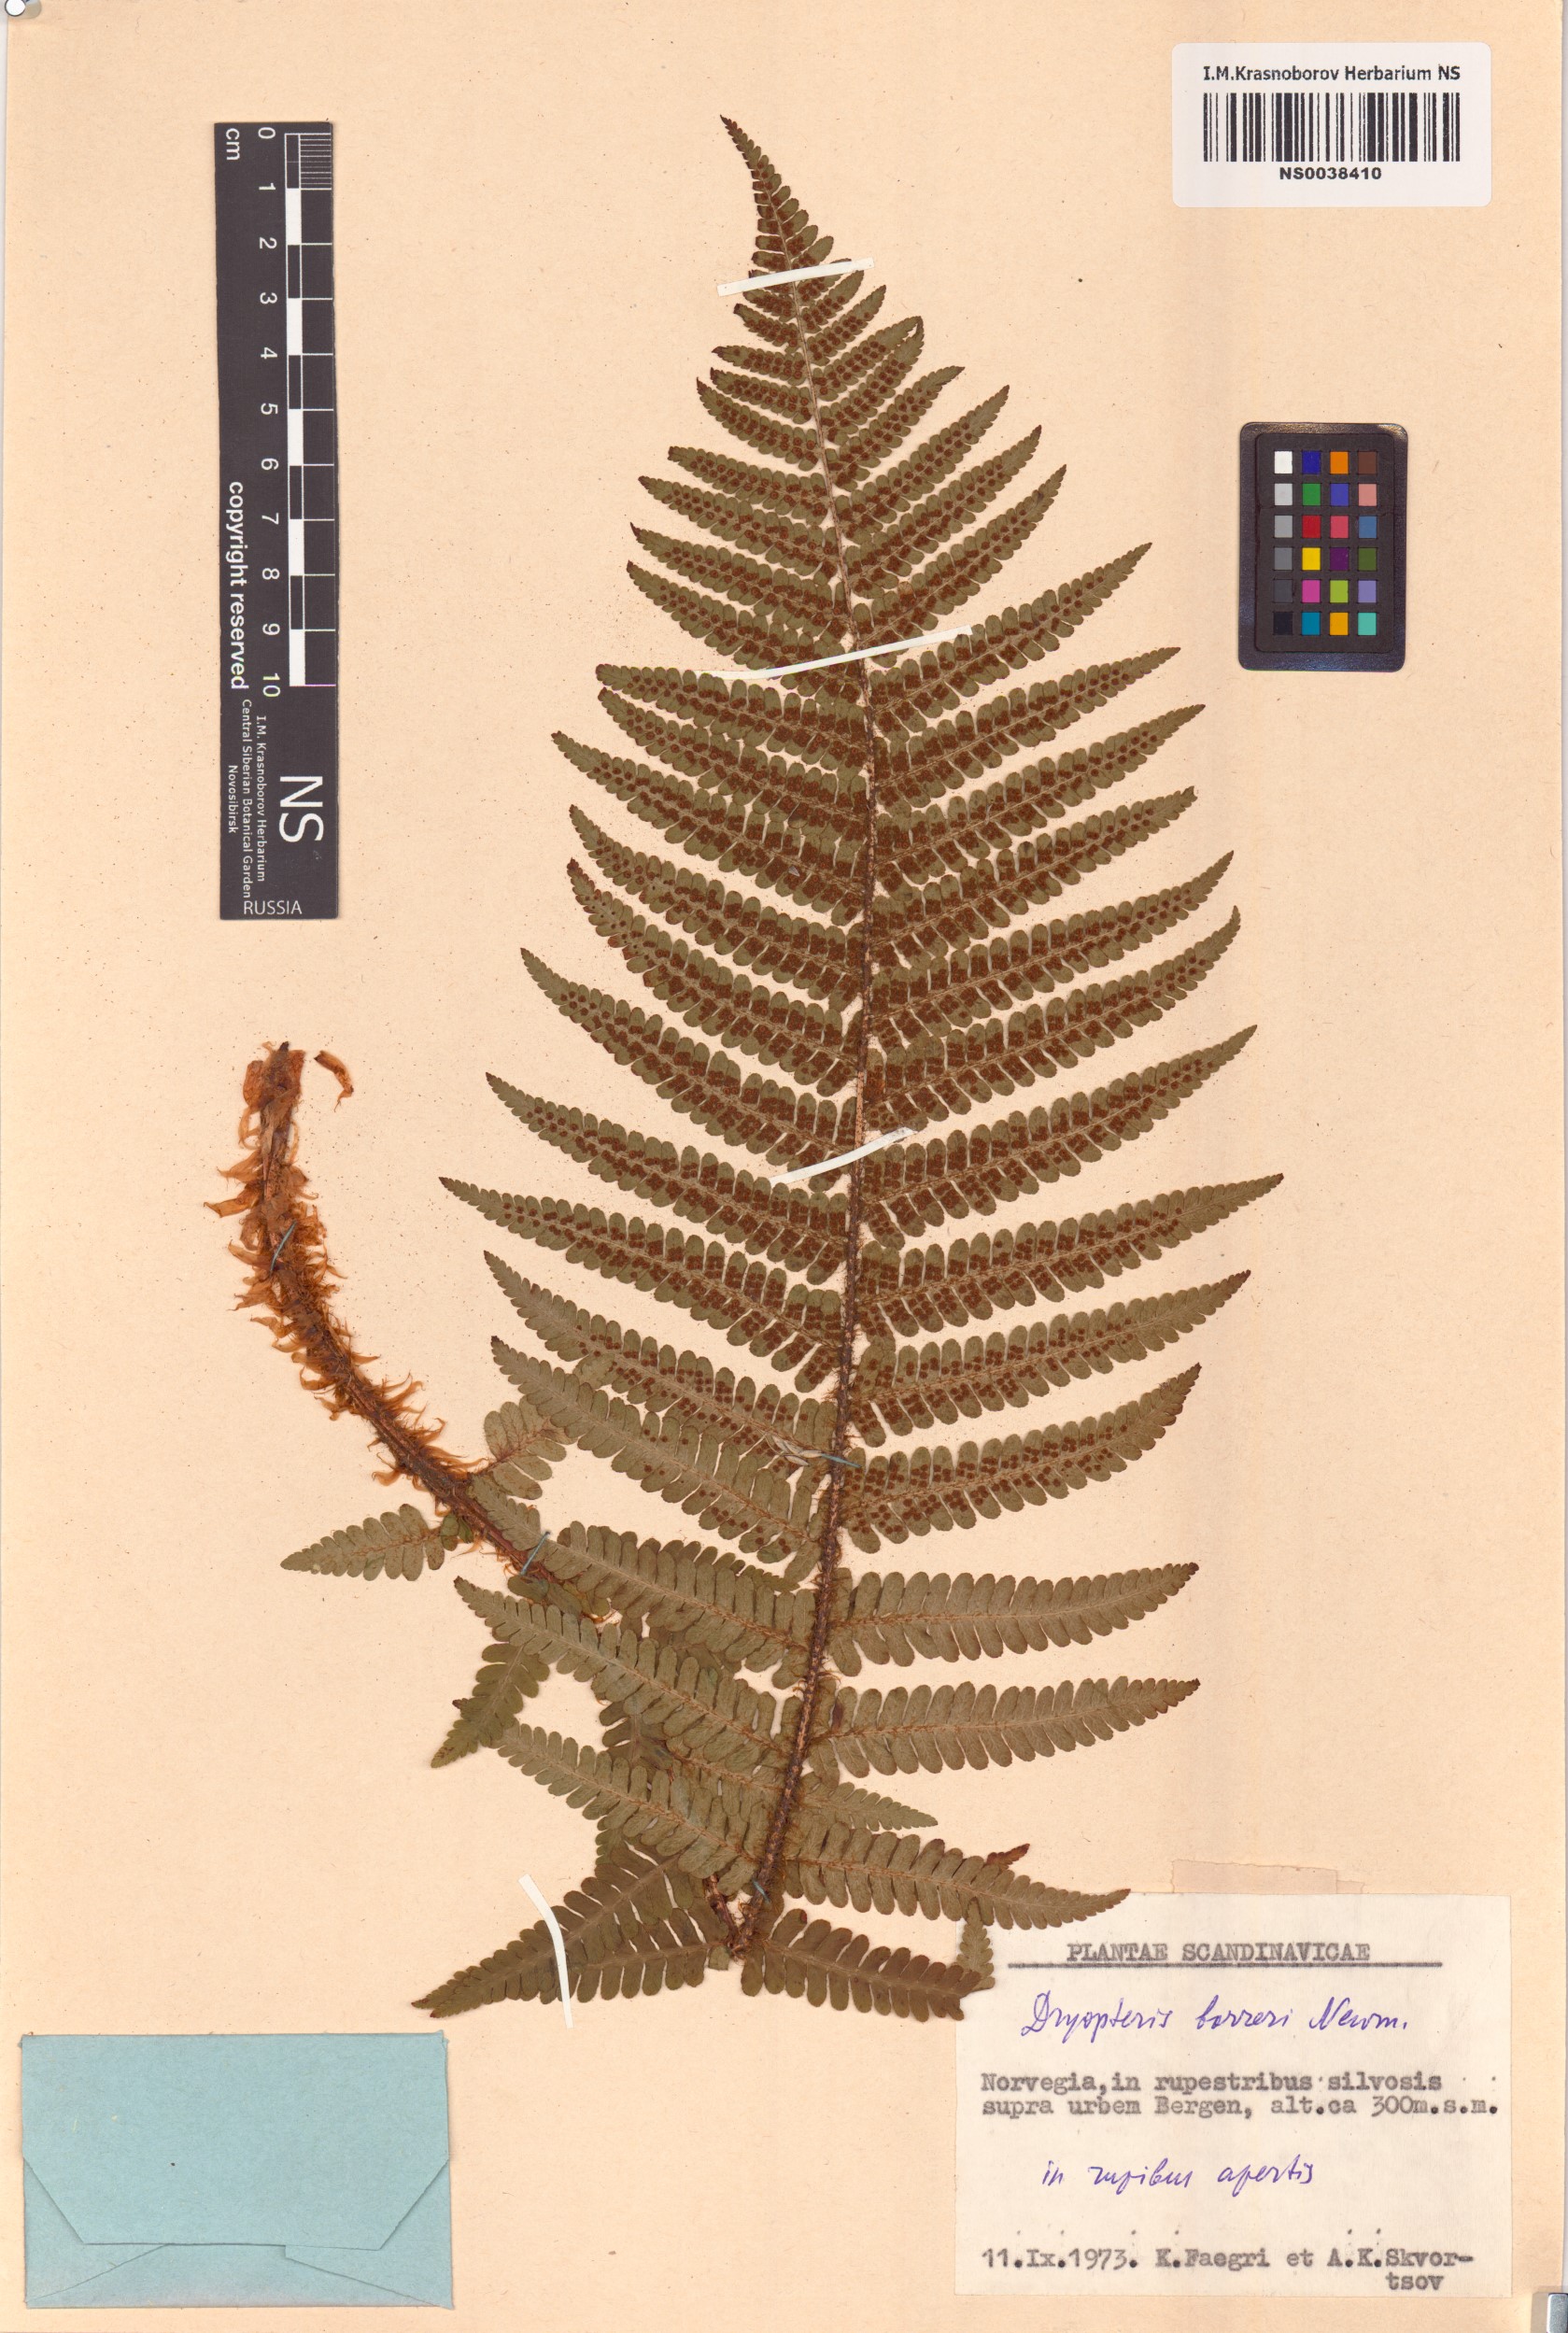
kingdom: Plantae
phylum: Tracheophyta
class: Polypodiopsida
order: Polypodiales
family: Dryopteridaceae
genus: Dryopteris
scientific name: Dryopteris borreri
